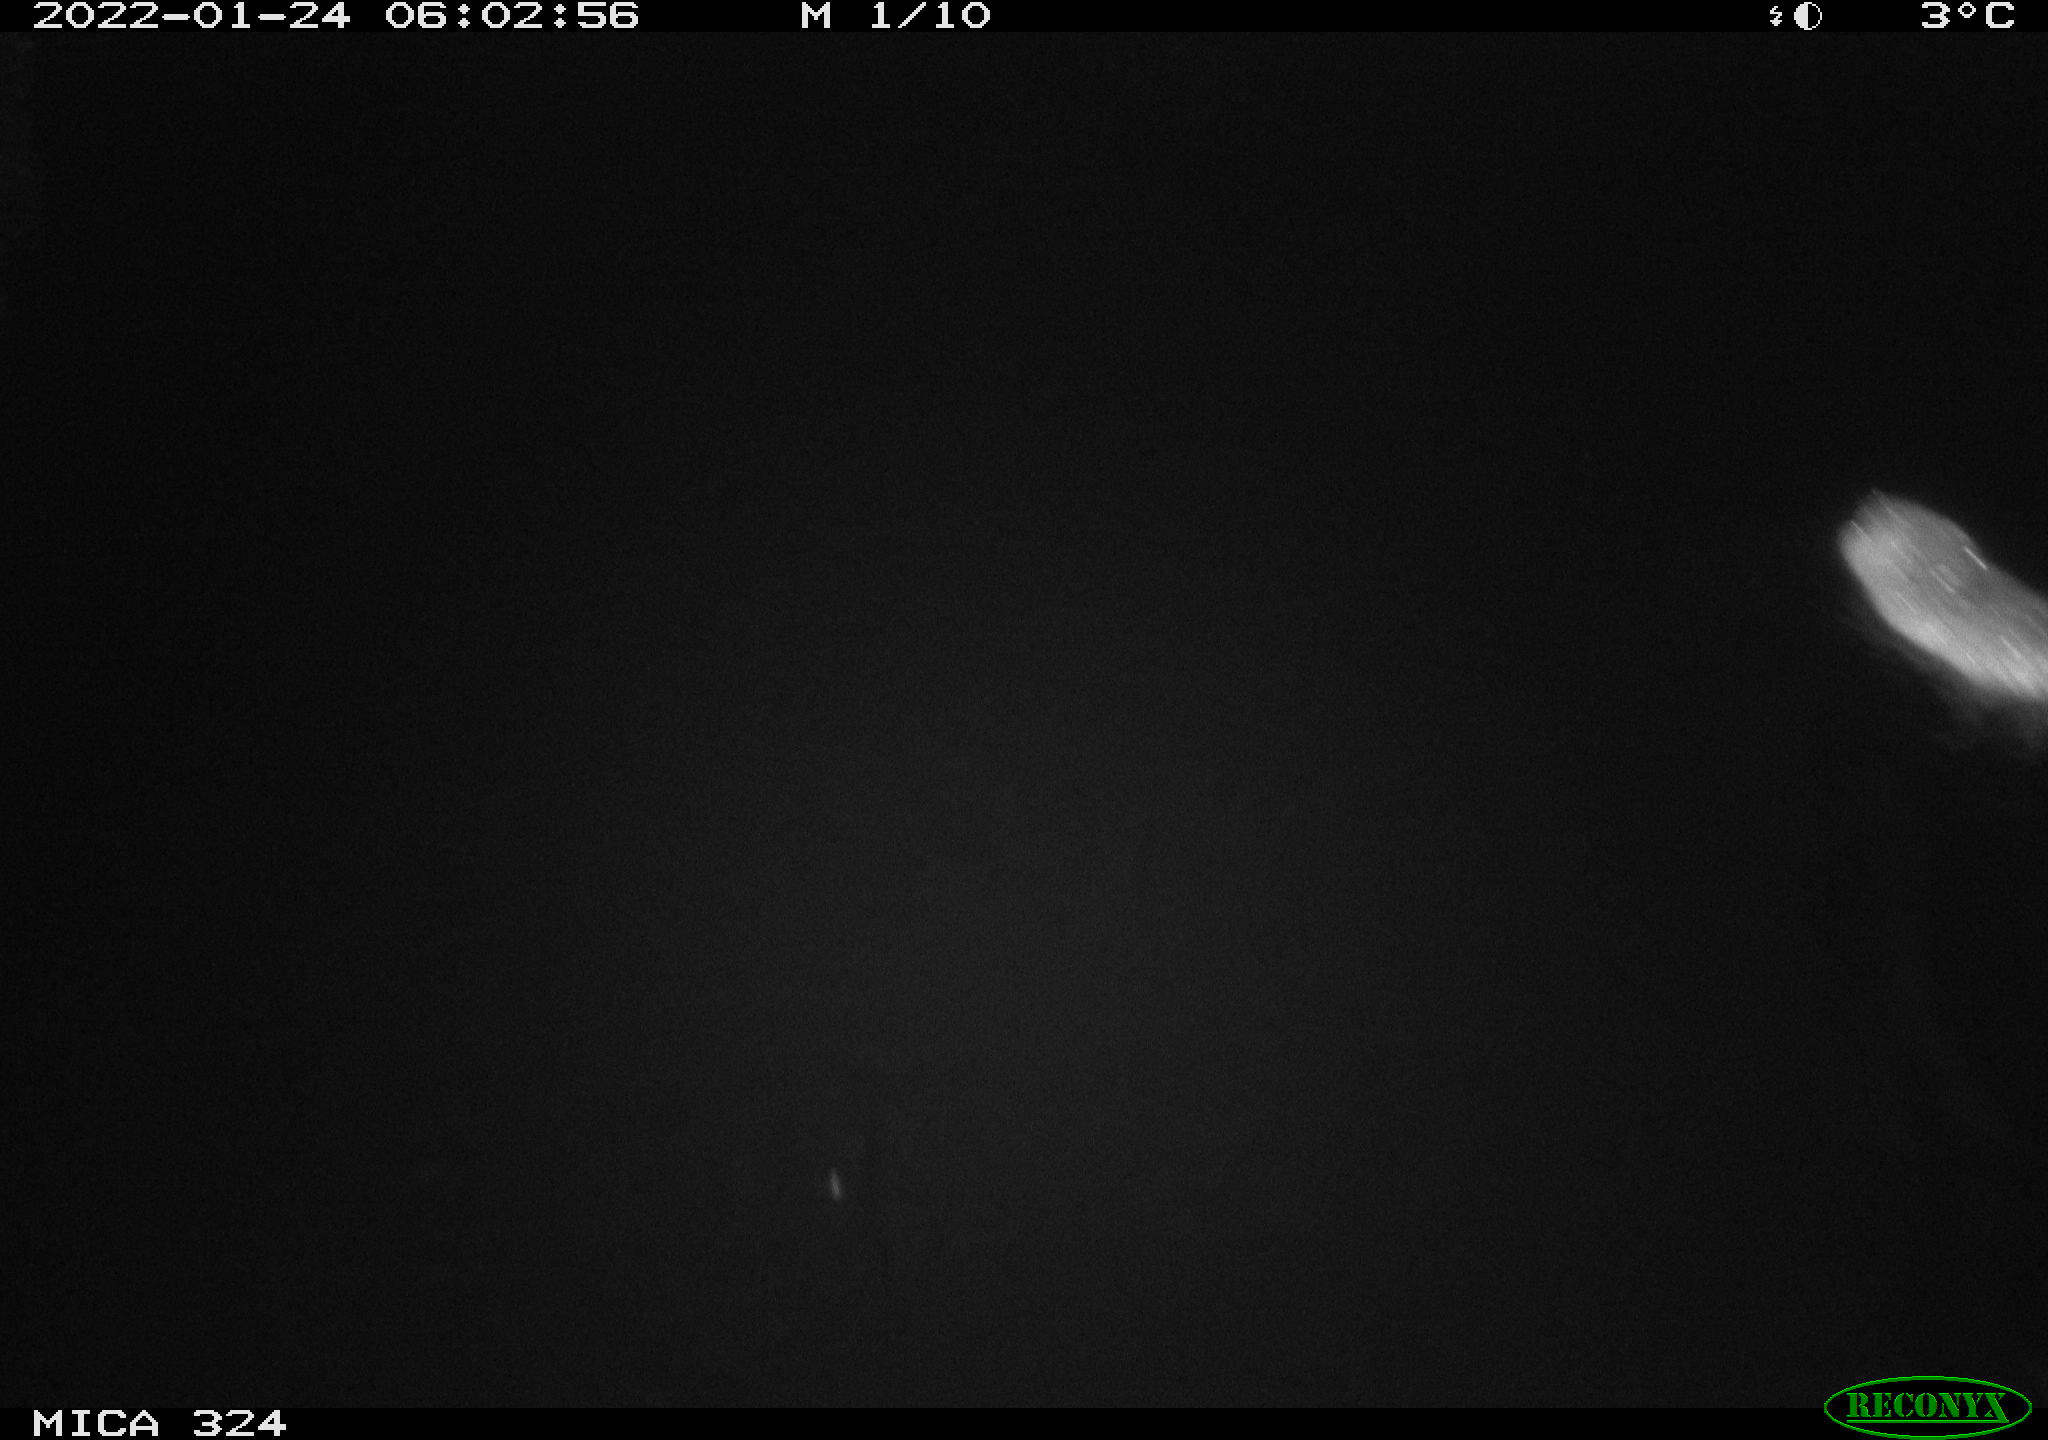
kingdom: Animalia
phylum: Chordata
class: Mammalia
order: Rodentia
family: Cricetidae
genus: Ondatra
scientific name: Ondatra zibethicus
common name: Muskrat
